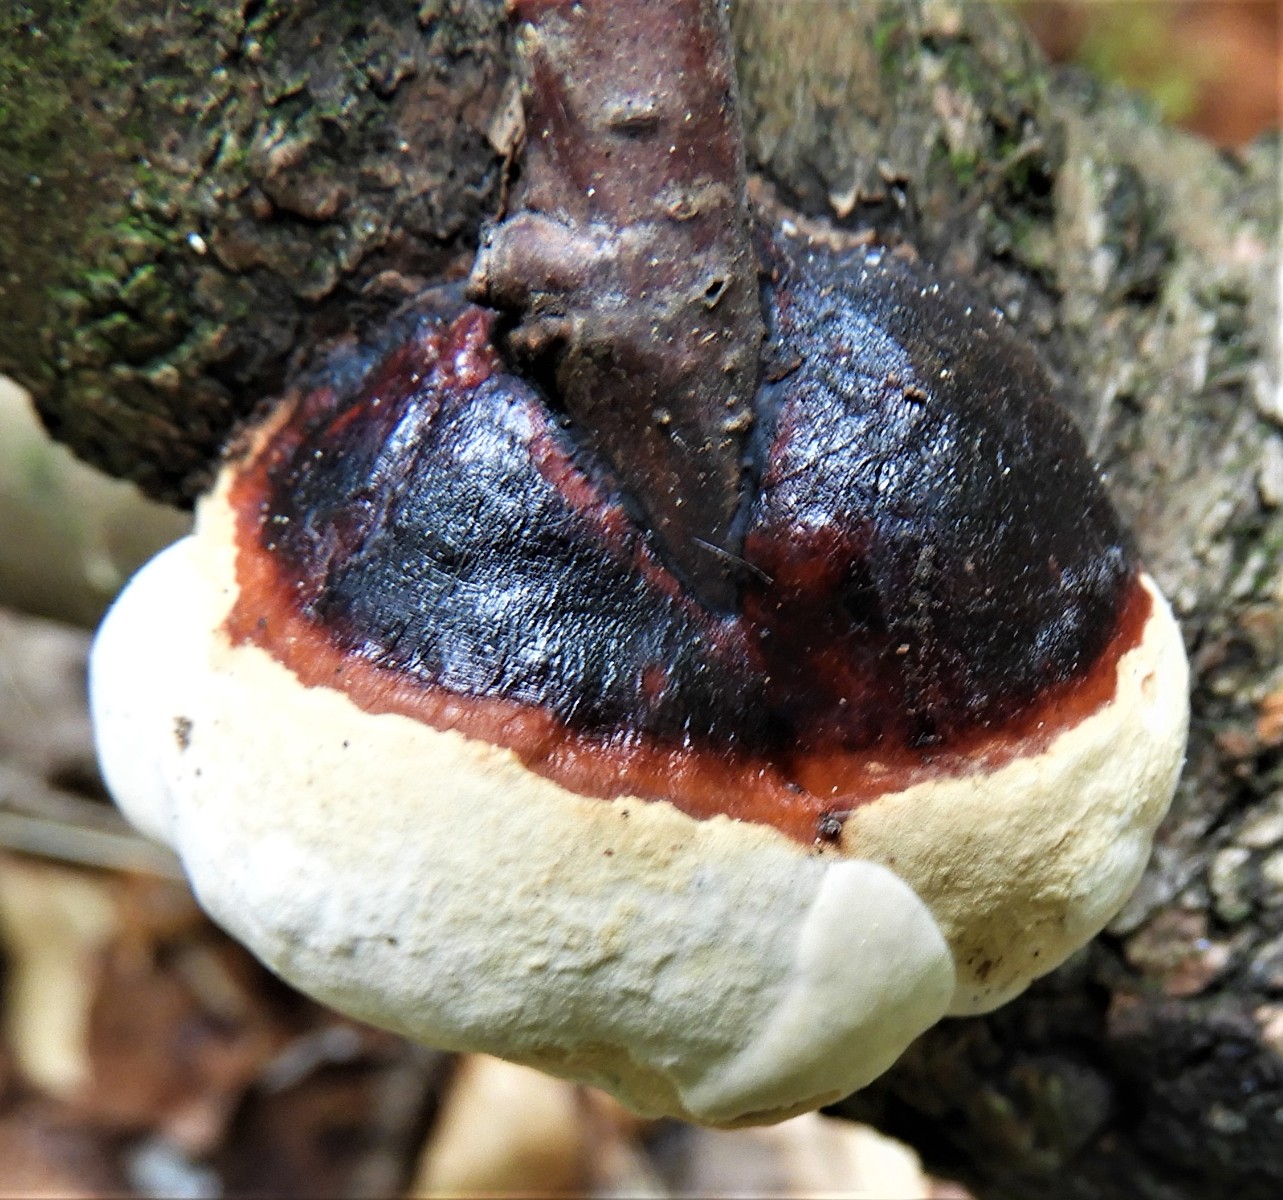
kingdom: Fungi
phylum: Basidiomycota
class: Agaricomycetes
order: Polyporales
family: Fomitopsidaceae
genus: Fomitopsis
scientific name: Fomitopsis pinicola
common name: randbæltet hovporesvamp
